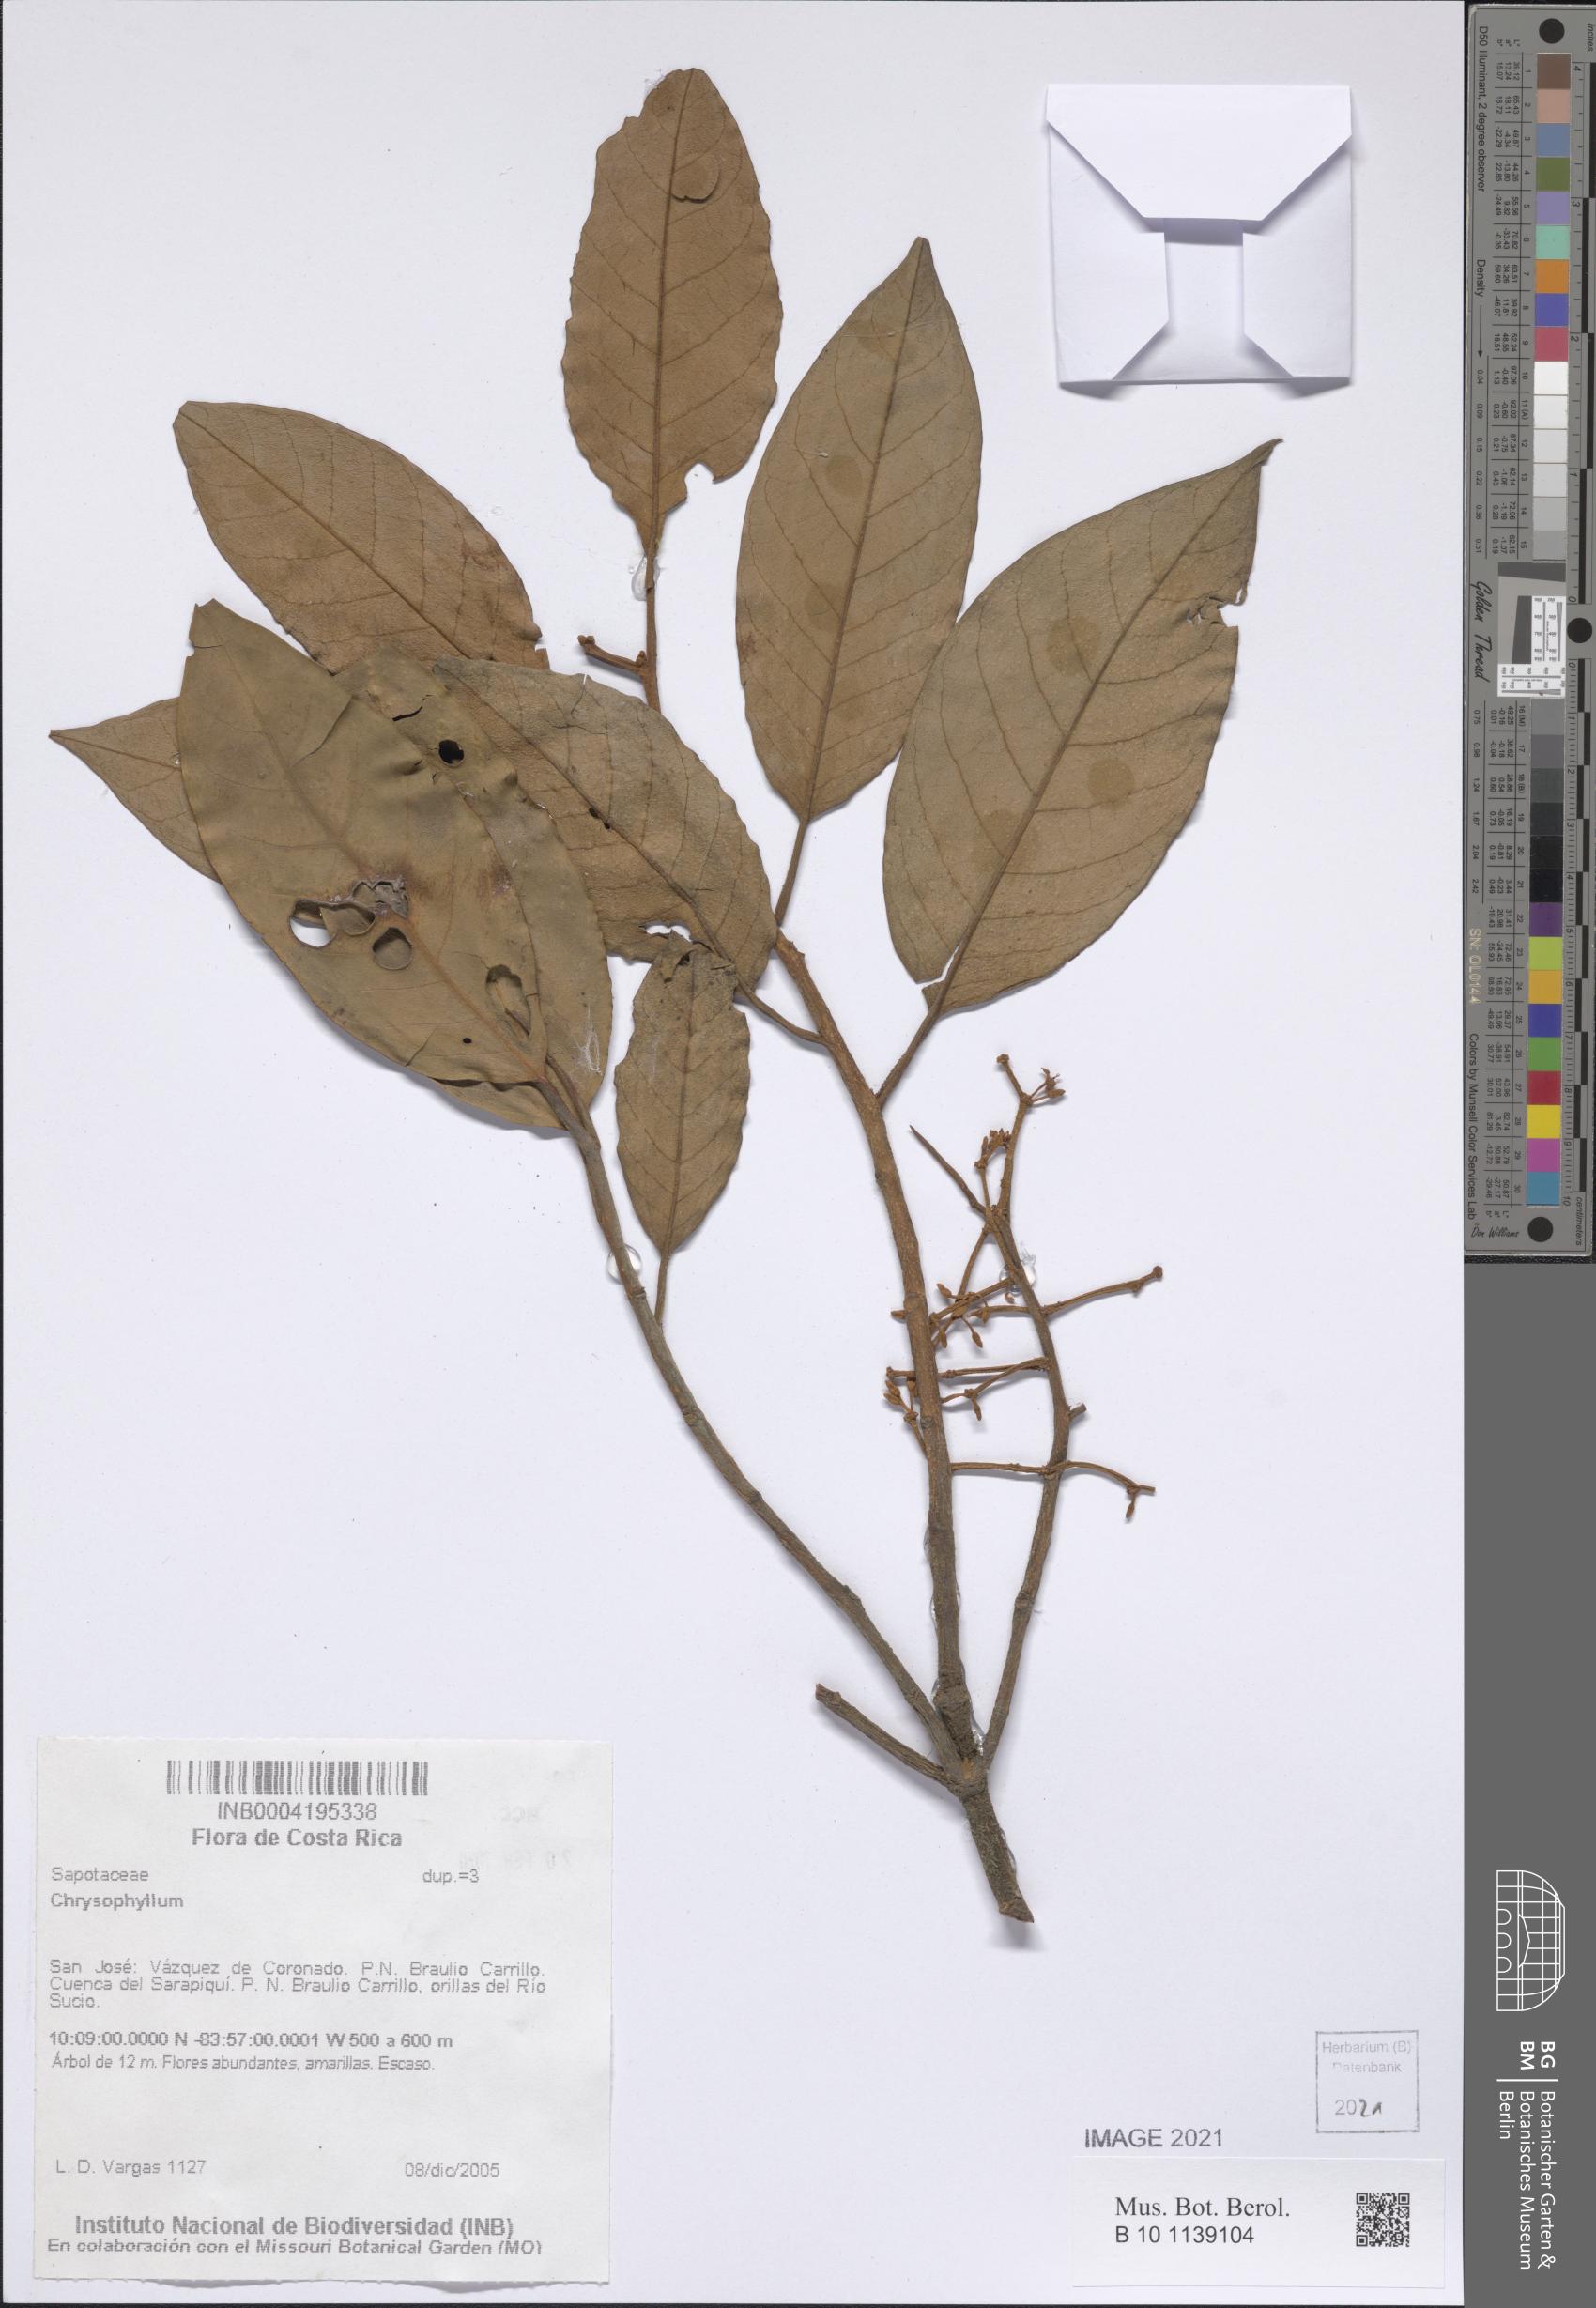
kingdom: Plantae
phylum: Tracheophyta
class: Magnoliopsida
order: Ericales
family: Sapotaceae
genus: Chrysophyllum
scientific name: Chrysophyllum
